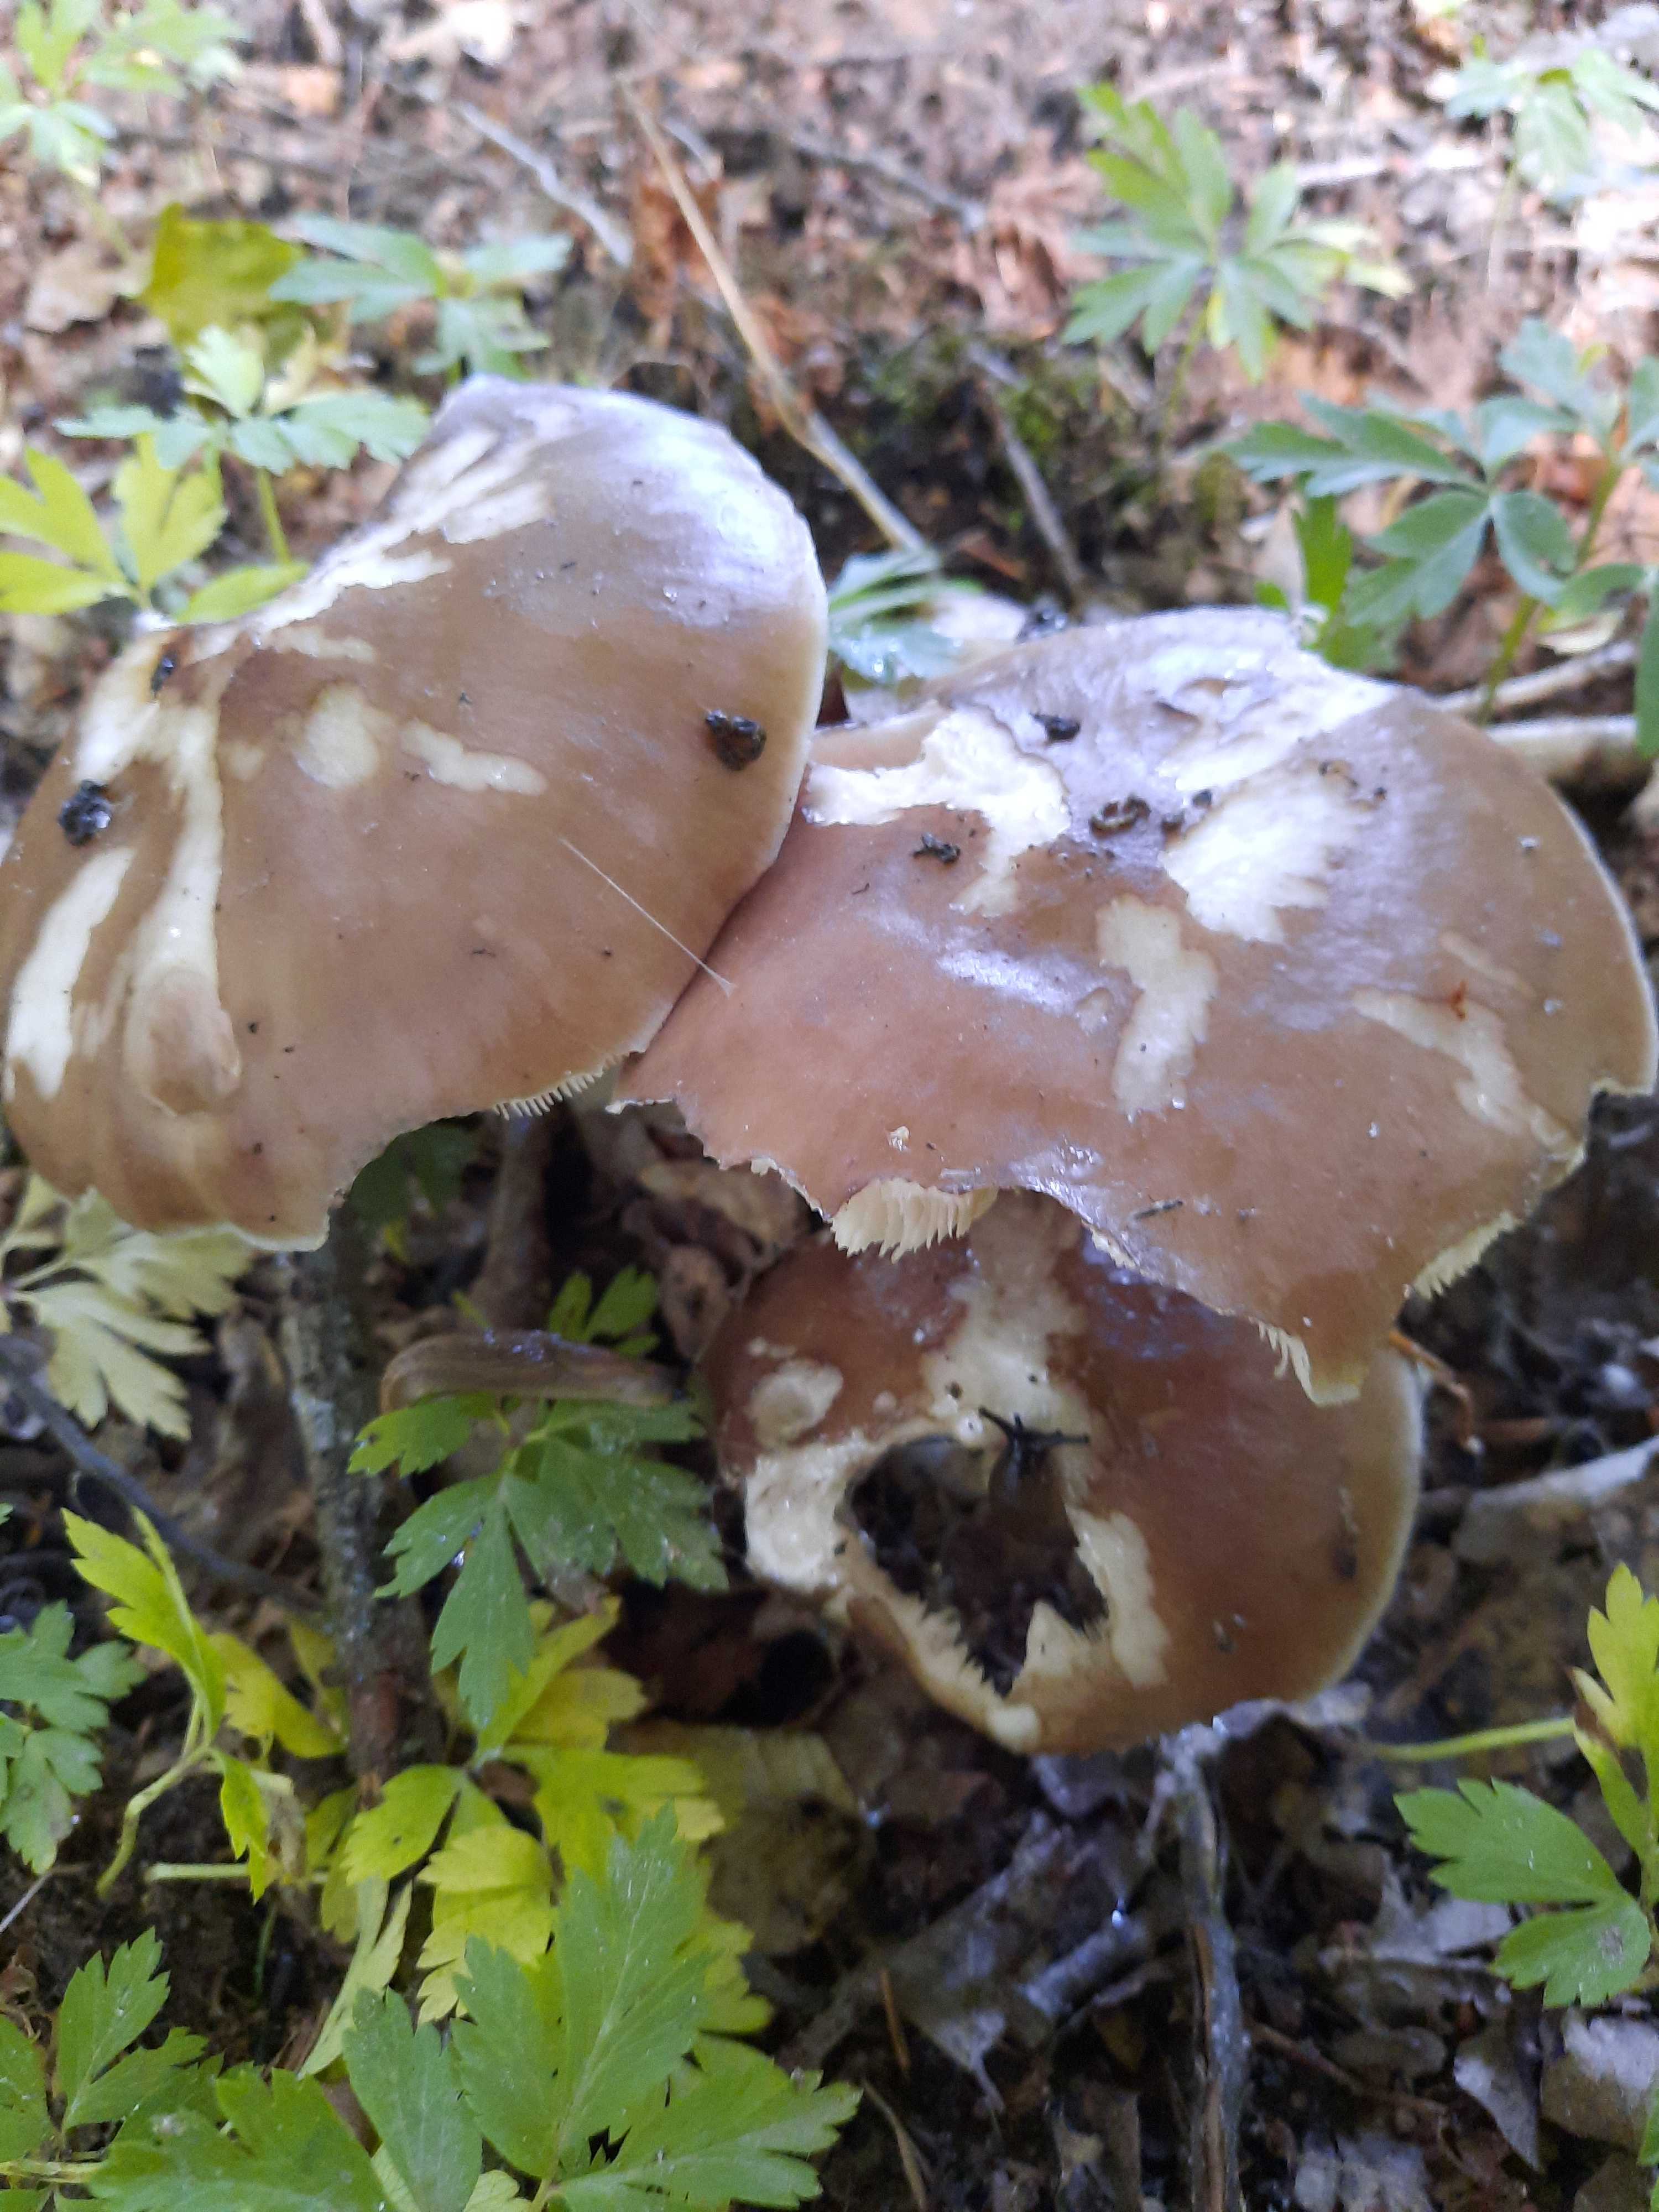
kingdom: Fungi
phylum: Basidiomycota
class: Agaricomycetes
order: Agaricales
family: Pluteaceae
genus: Pluteus
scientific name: Pluteus cervinus
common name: sodfarvet skærmhat
